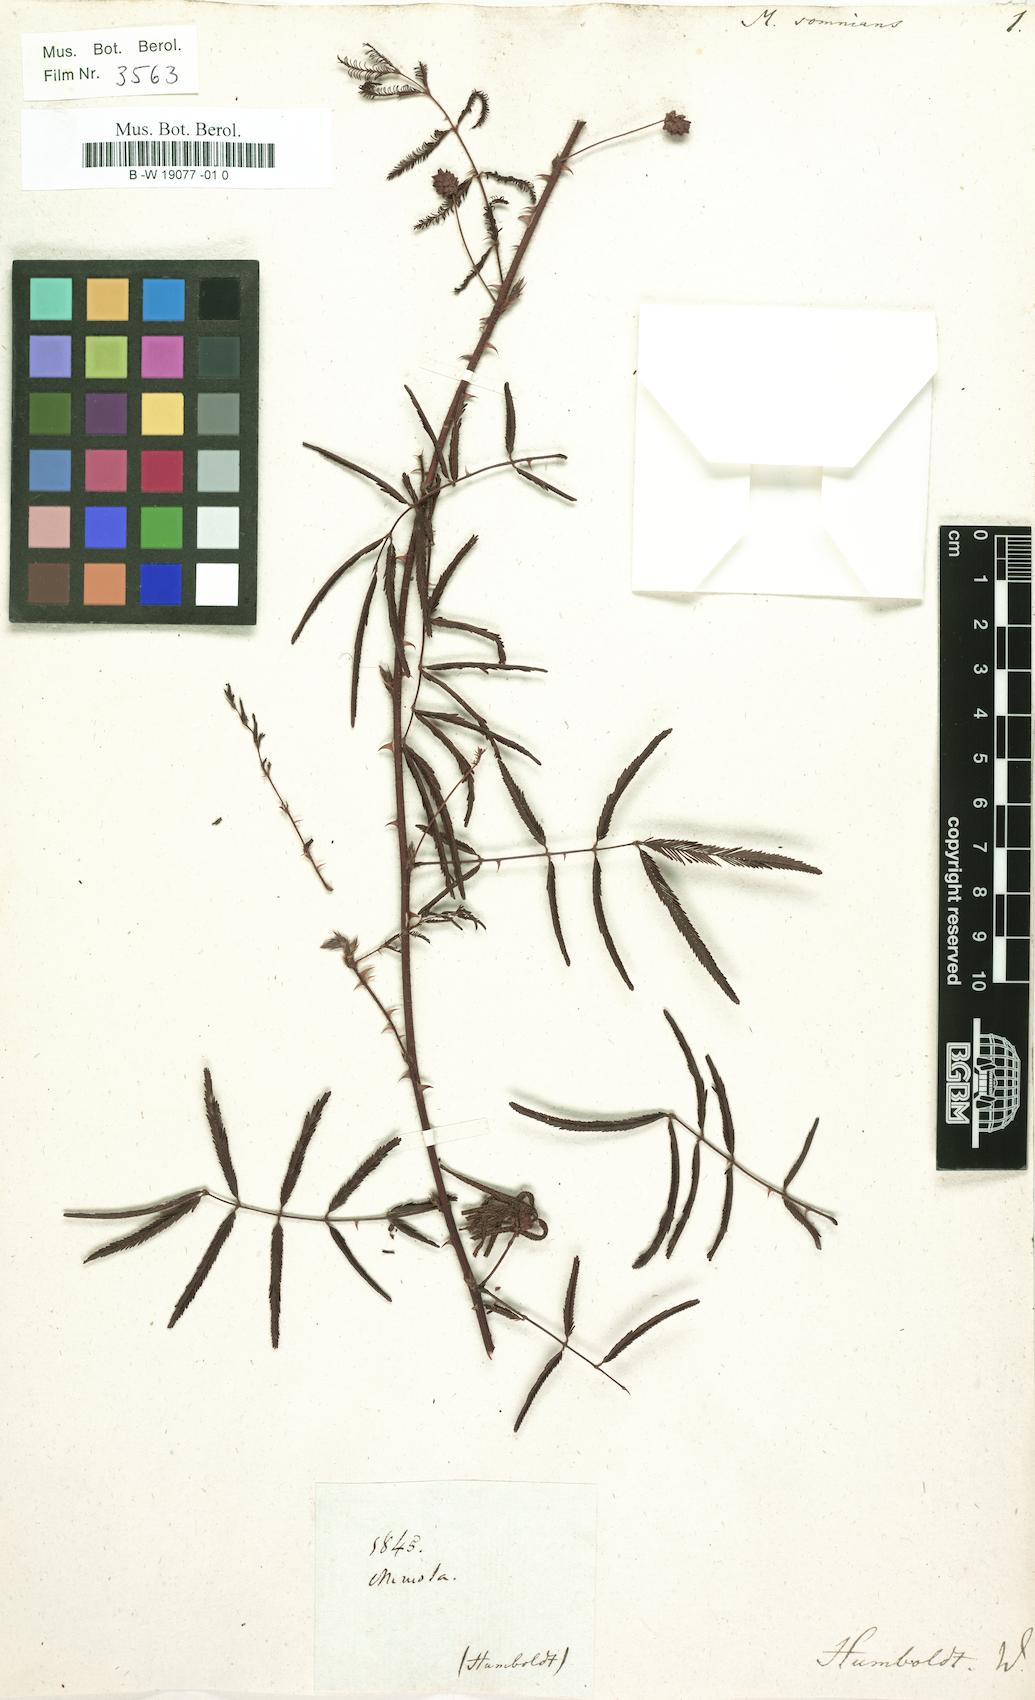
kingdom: Plantae
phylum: Tracheophyta
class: Magnoliopsida
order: Fabales
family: Fabaceae
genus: Mimosa
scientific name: Mimosa somnians
